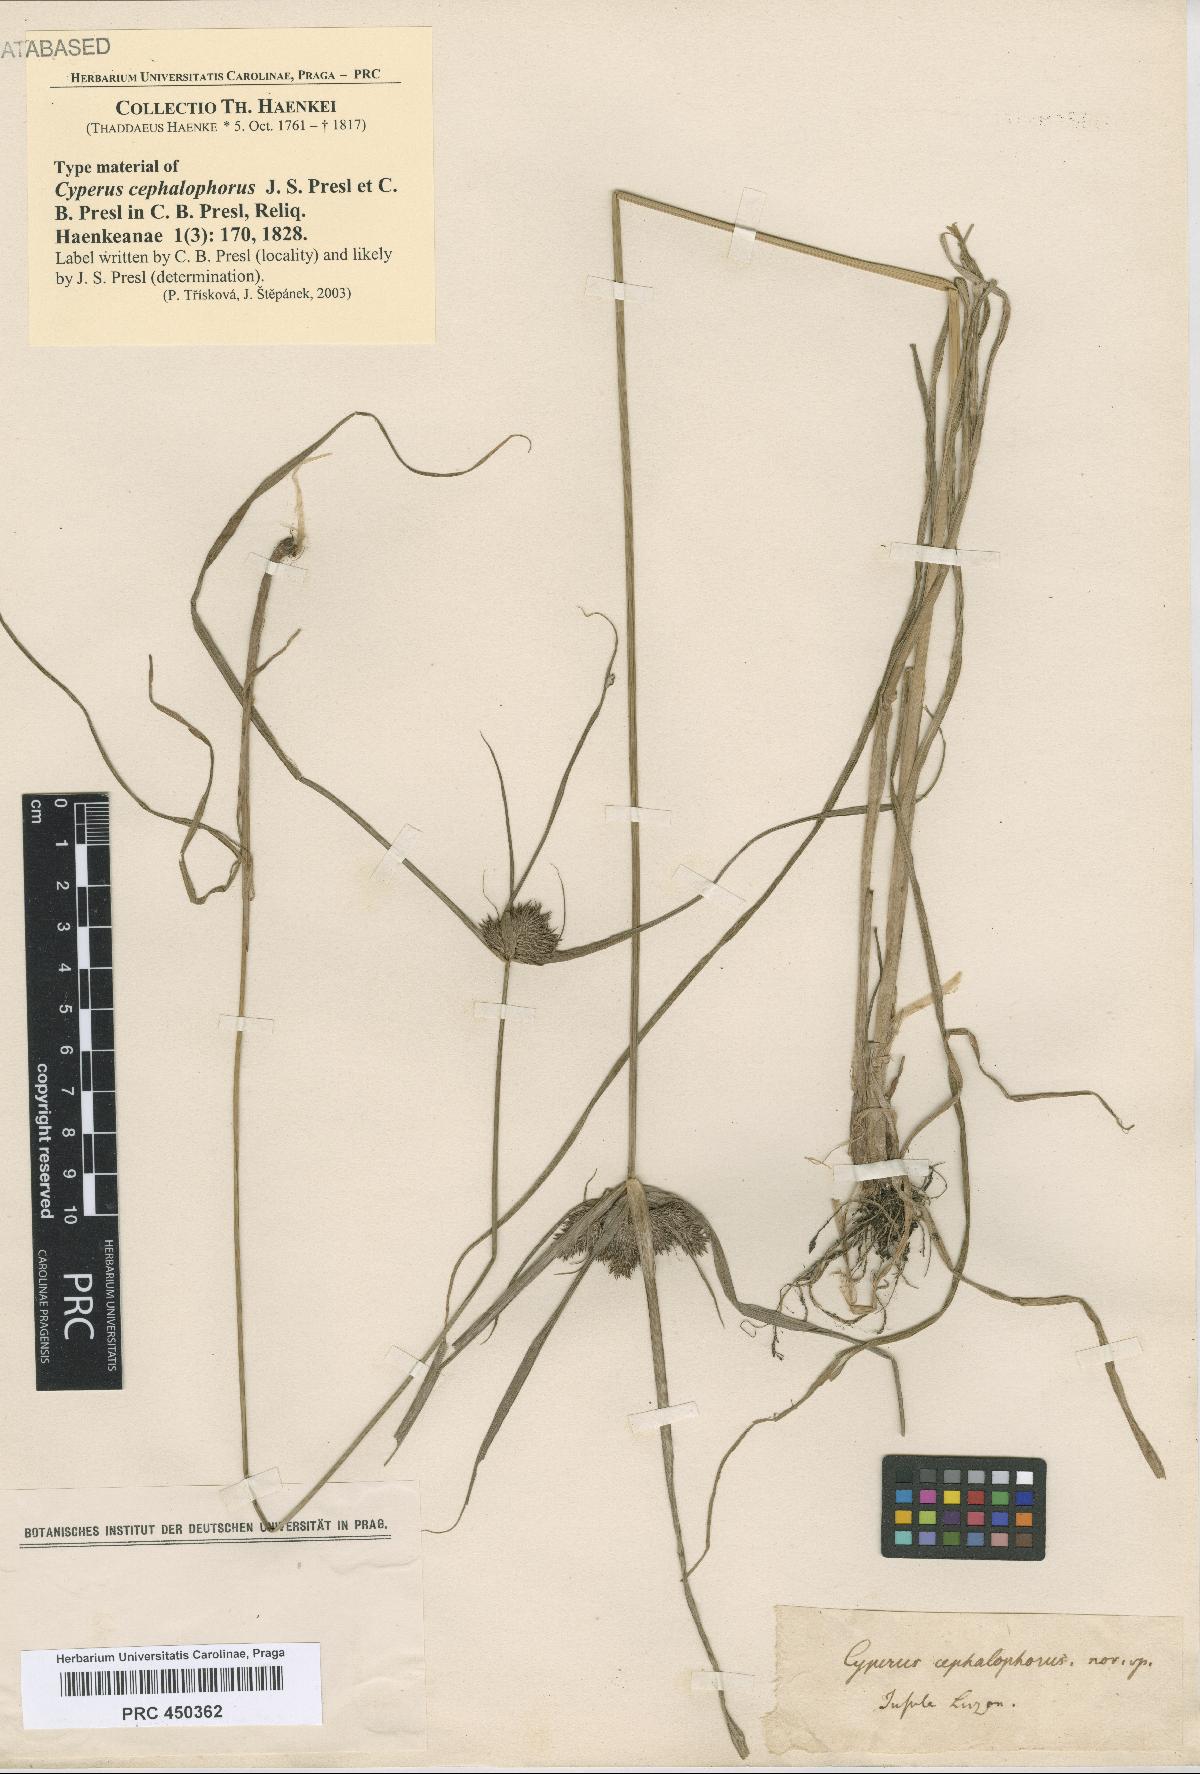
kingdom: Plantae
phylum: Tracheophyta
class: Liliopsida
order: Poales
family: Cyperaceae
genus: Cyperus
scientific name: Cyperus conglobatus
